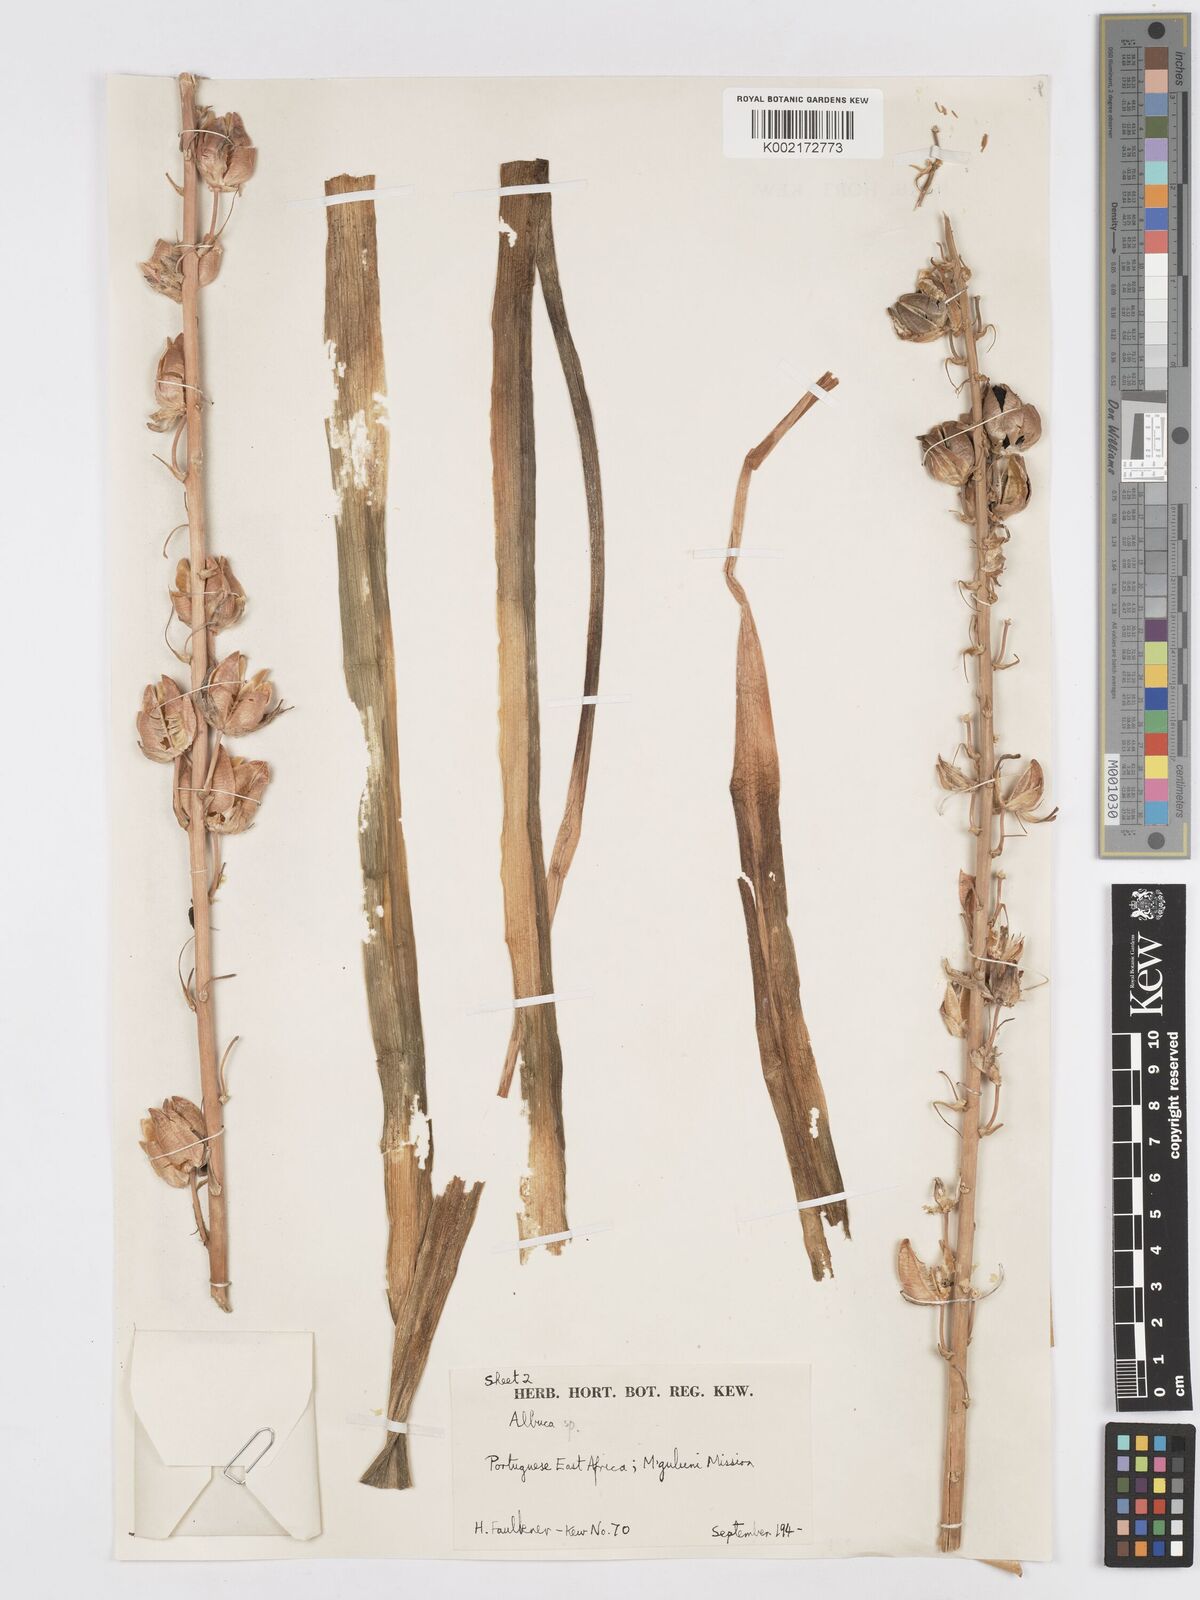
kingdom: Plantae
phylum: Tracheophyta
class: Liliopsida
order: Asparagales
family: Asparagaceae
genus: Albuca
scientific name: Albuca
